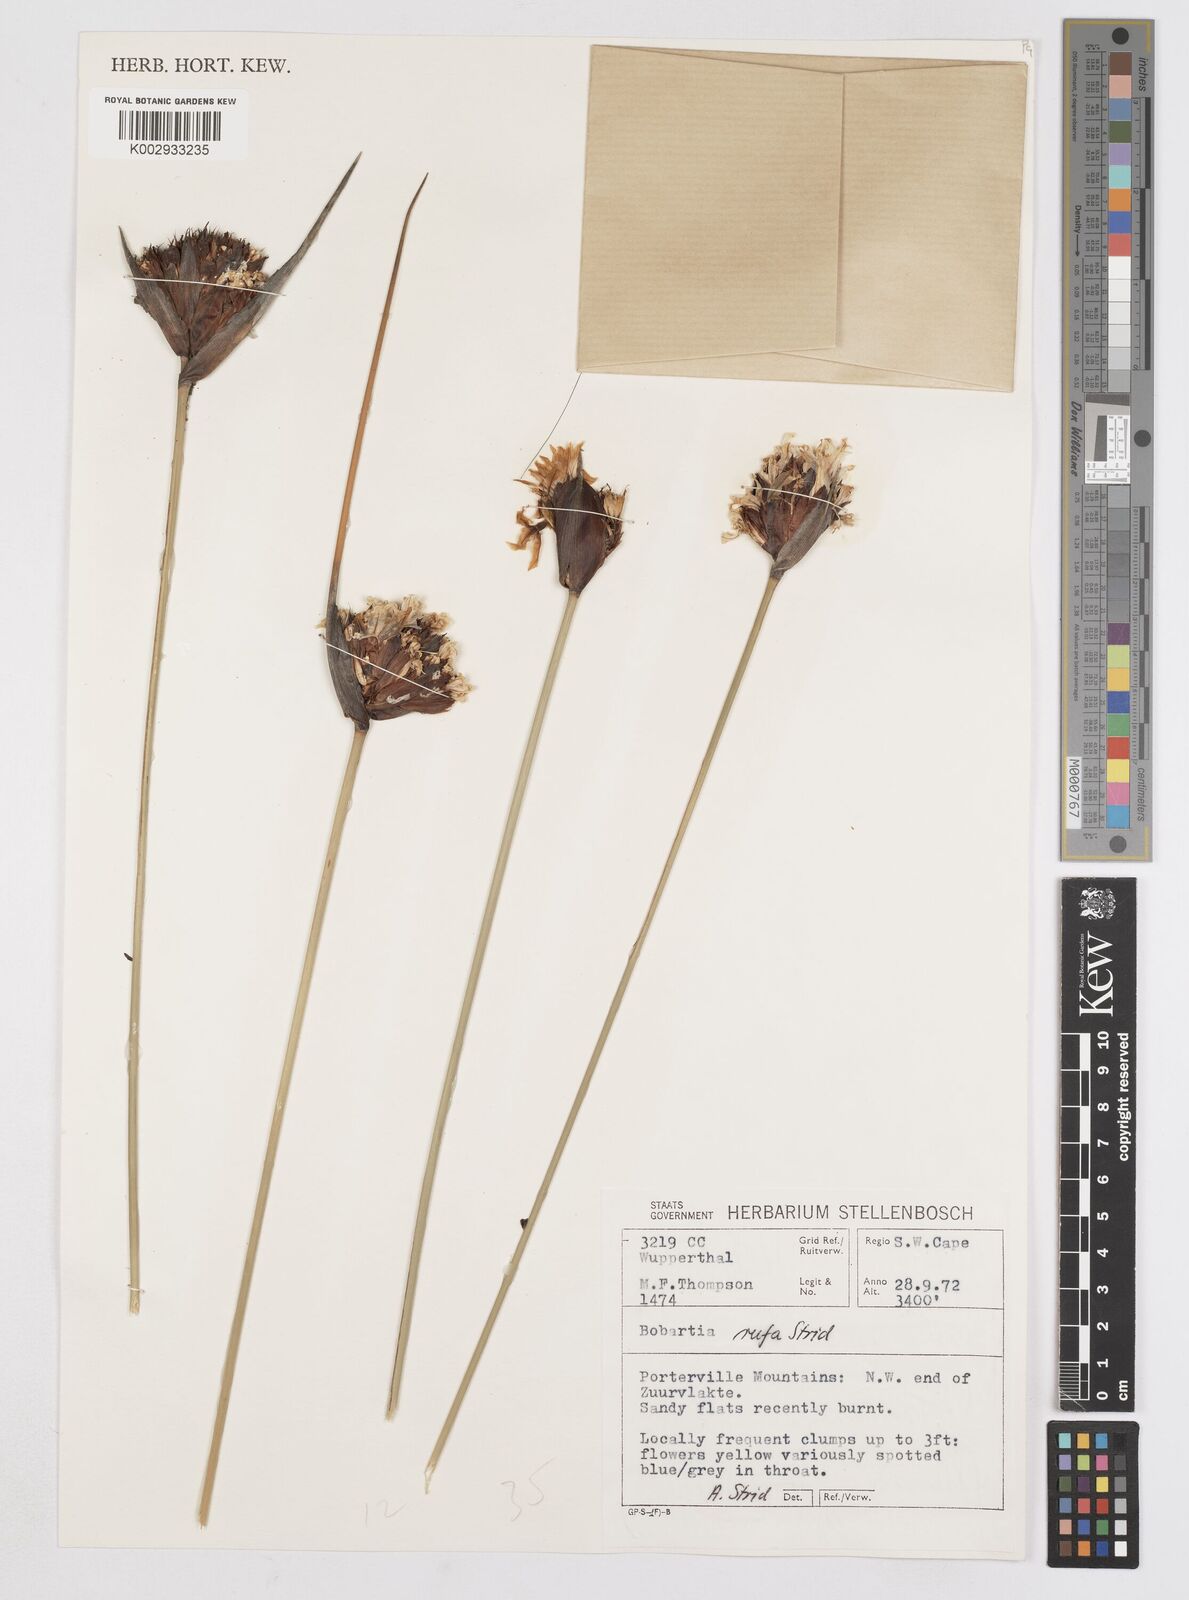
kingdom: Plantae
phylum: Tracheophyta
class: Liliopsida
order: Asparagales
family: Iridaceae
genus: Bobartia
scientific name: Bobartia rufa
